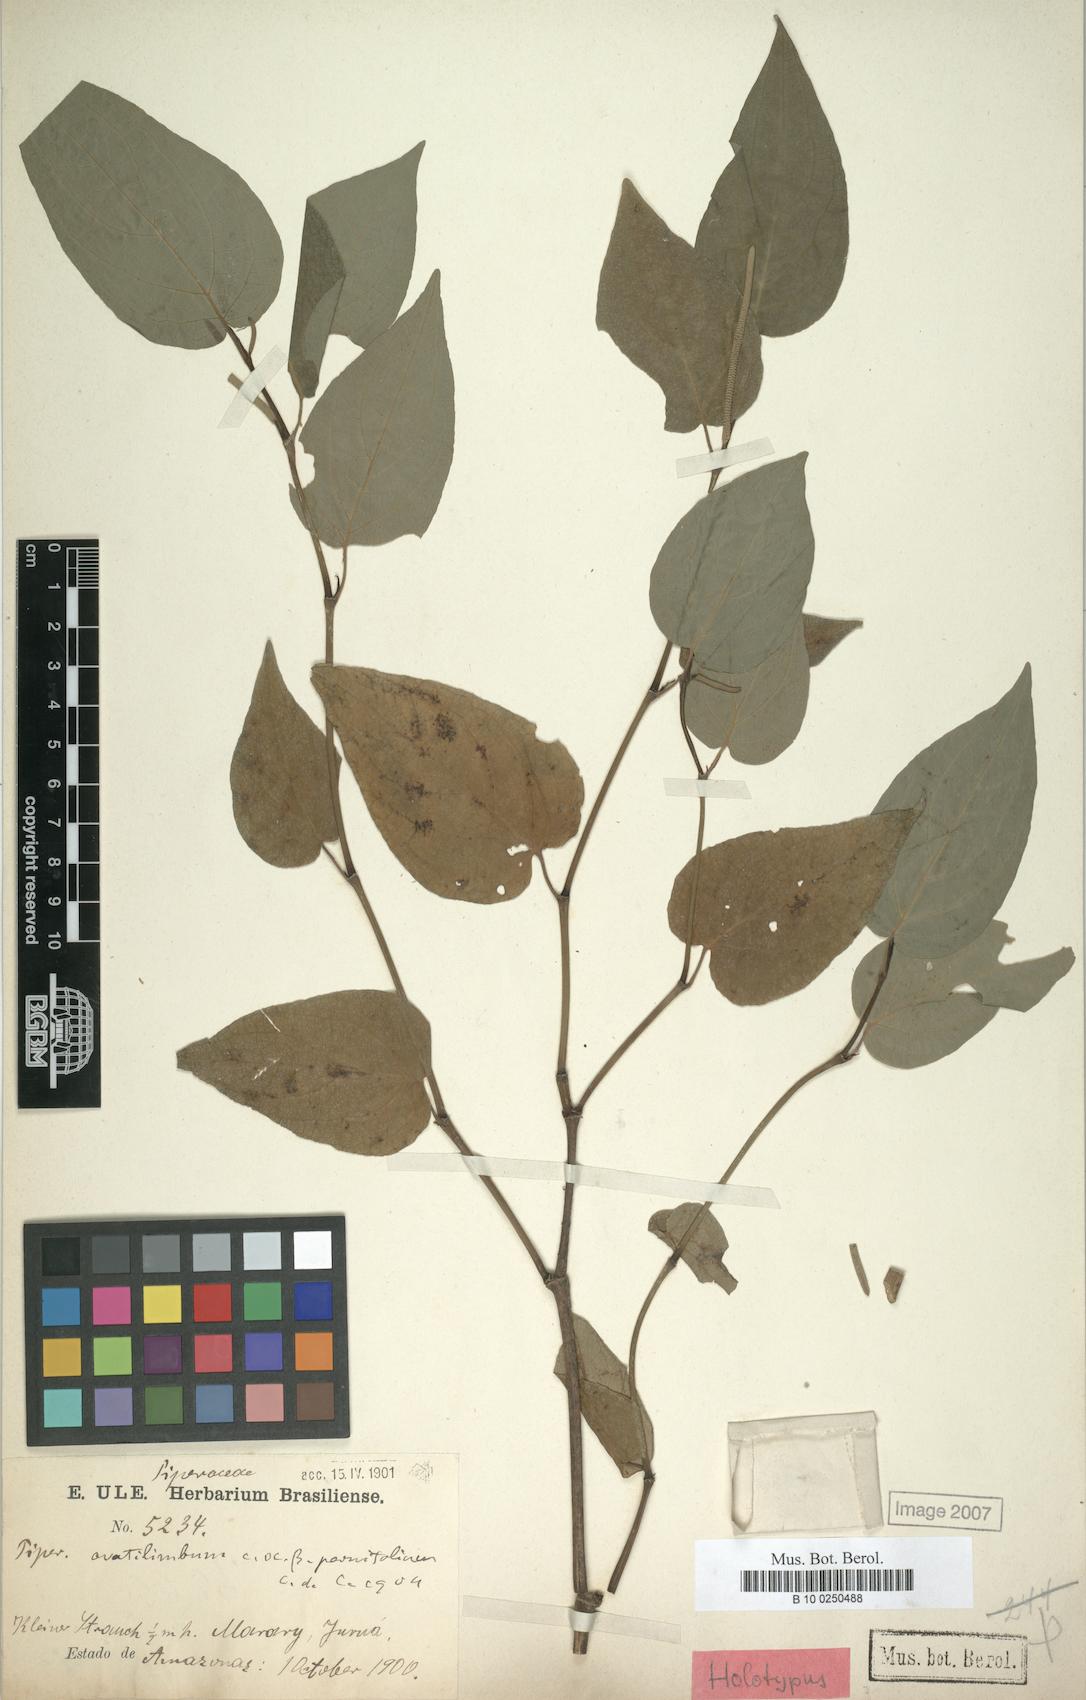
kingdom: Plantae
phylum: Tracheophyta
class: Magnoliopsida
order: Piperales
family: Piperaceae
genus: Piper
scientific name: Piper ovatilimbum
